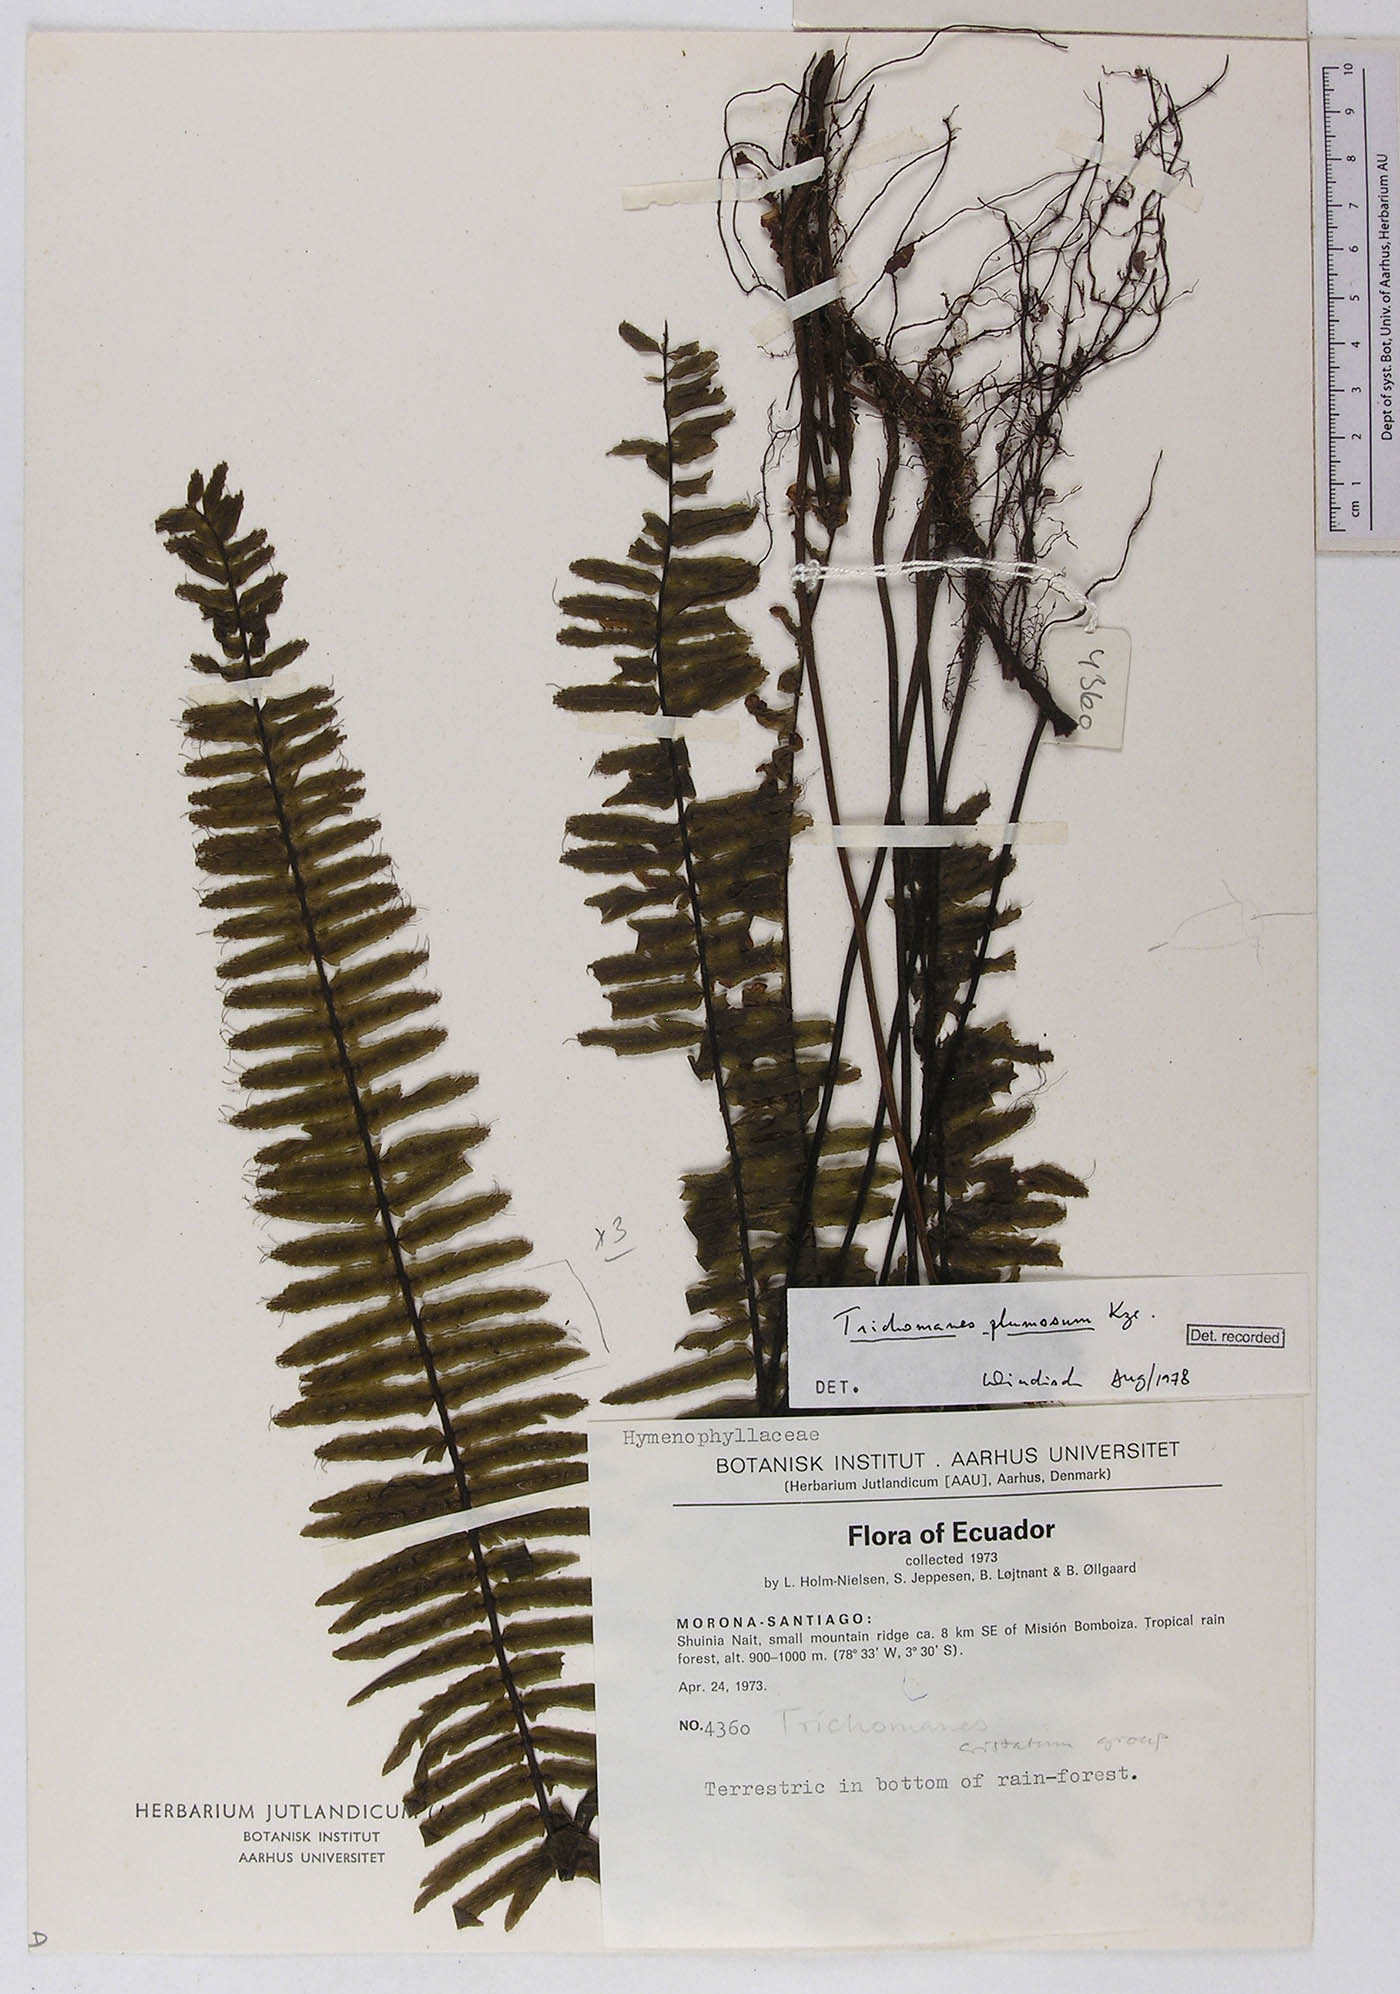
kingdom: Plantae
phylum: Tracheophyta
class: Polypodiopsida
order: Hymenophyllales
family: Hymenophyllaceae
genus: Trichomanes
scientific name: Trichomanes plumosum
